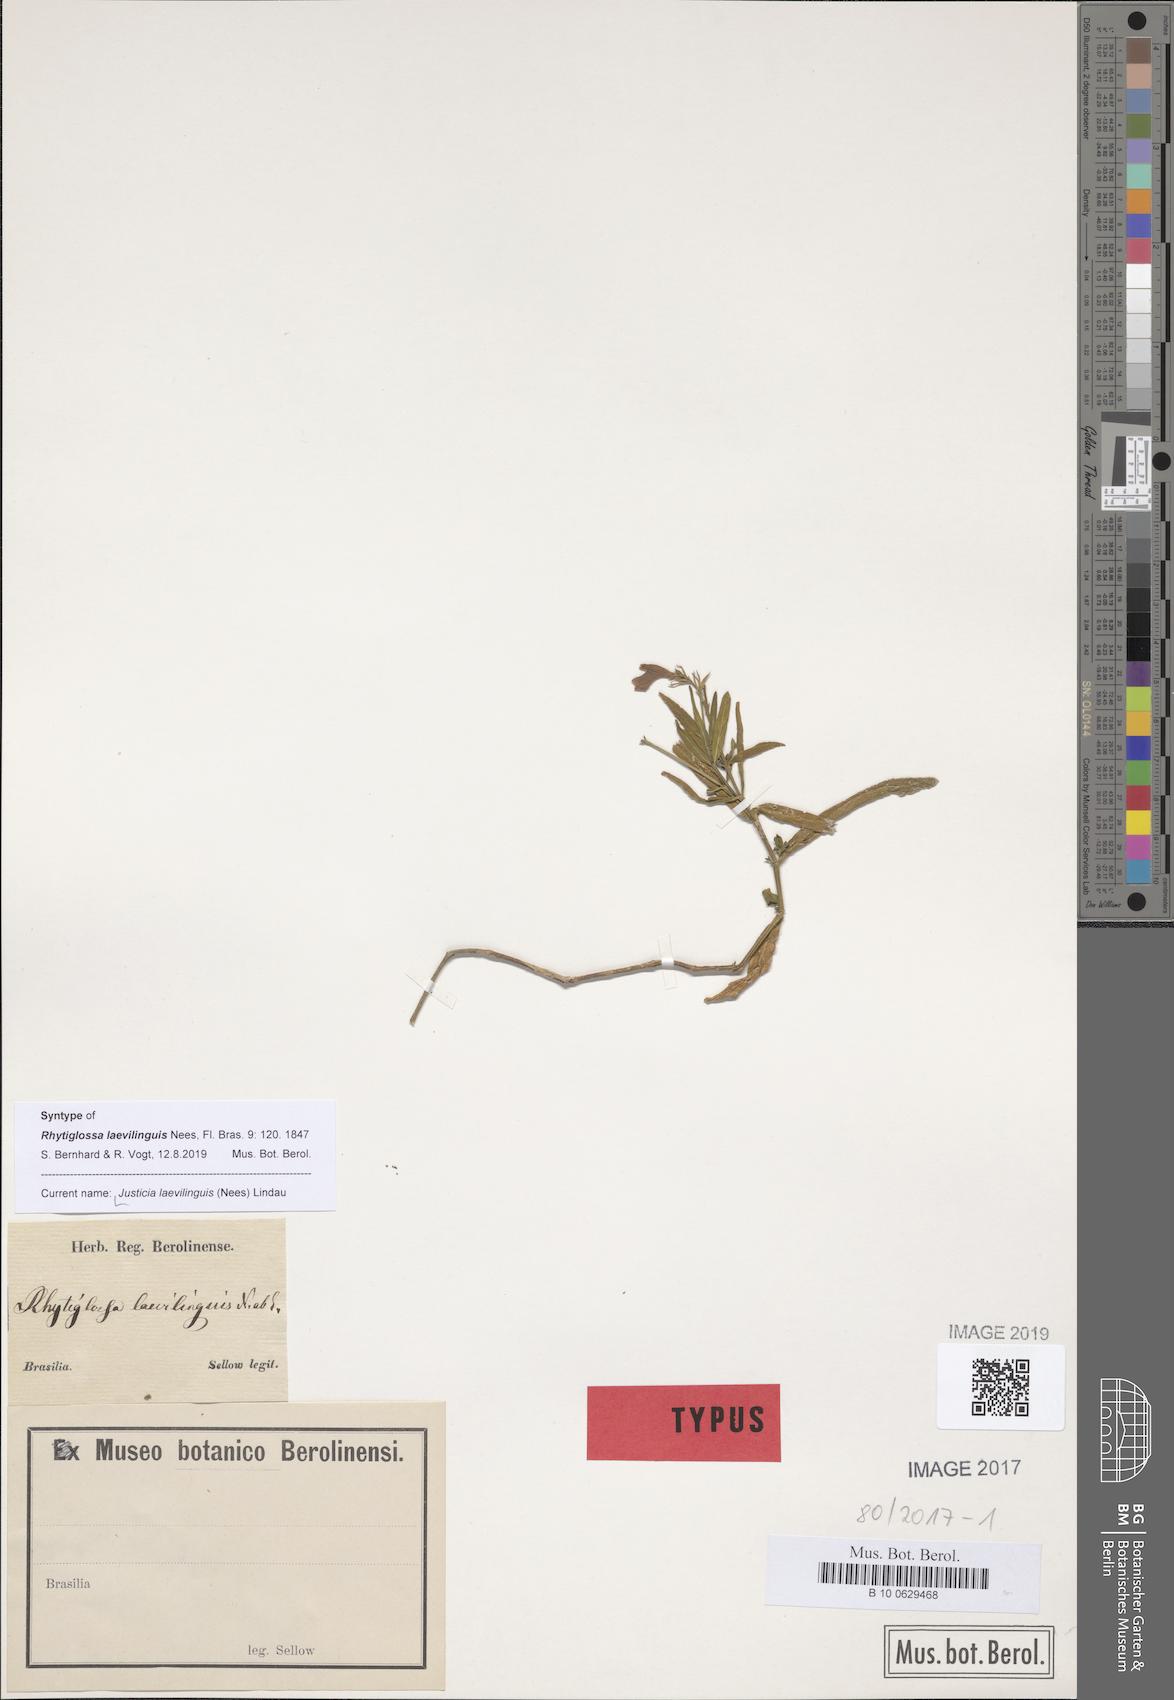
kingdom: Plantae
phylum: Tracheophyta
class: Magnoliopsida
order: Lamiales
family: Acanthaceae
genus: Dianthera
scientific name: Dianthera laevilinguis
